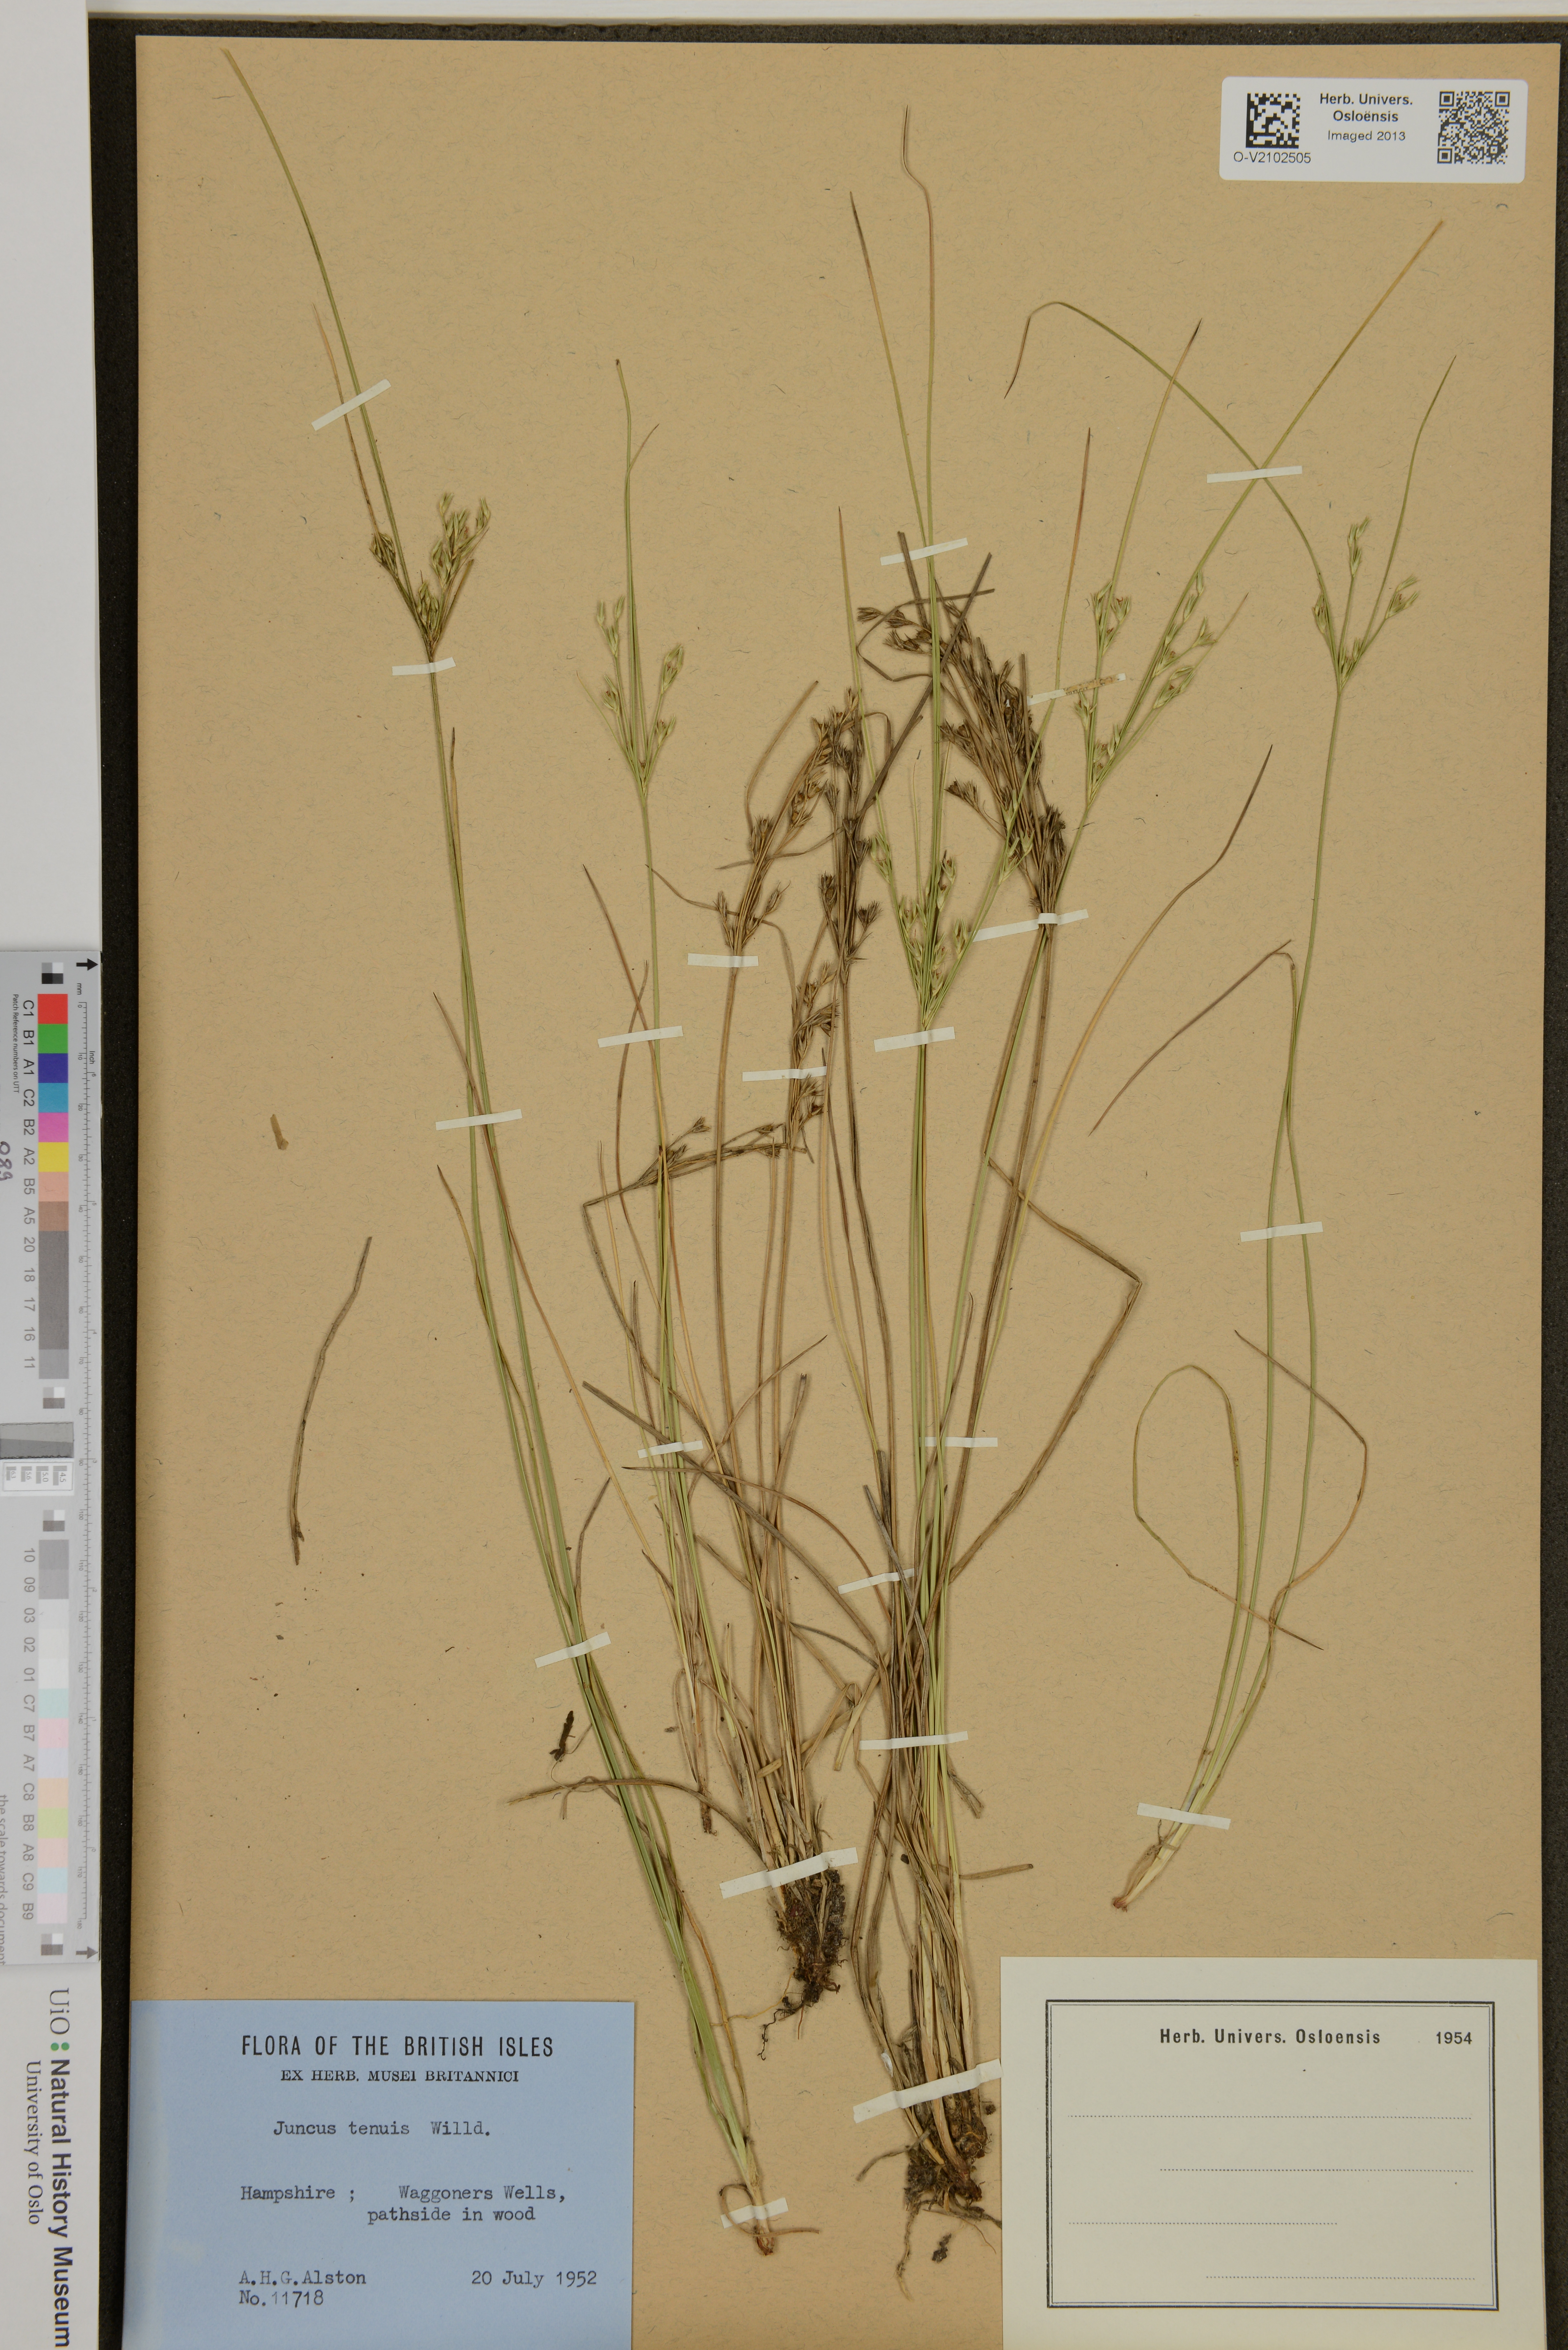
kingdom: Plantae
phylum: Tracheophyta
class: Liliopsida
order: Poales
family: Juncaceae
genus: Juncus
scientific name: Juncus tenuis
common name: Slender rush
